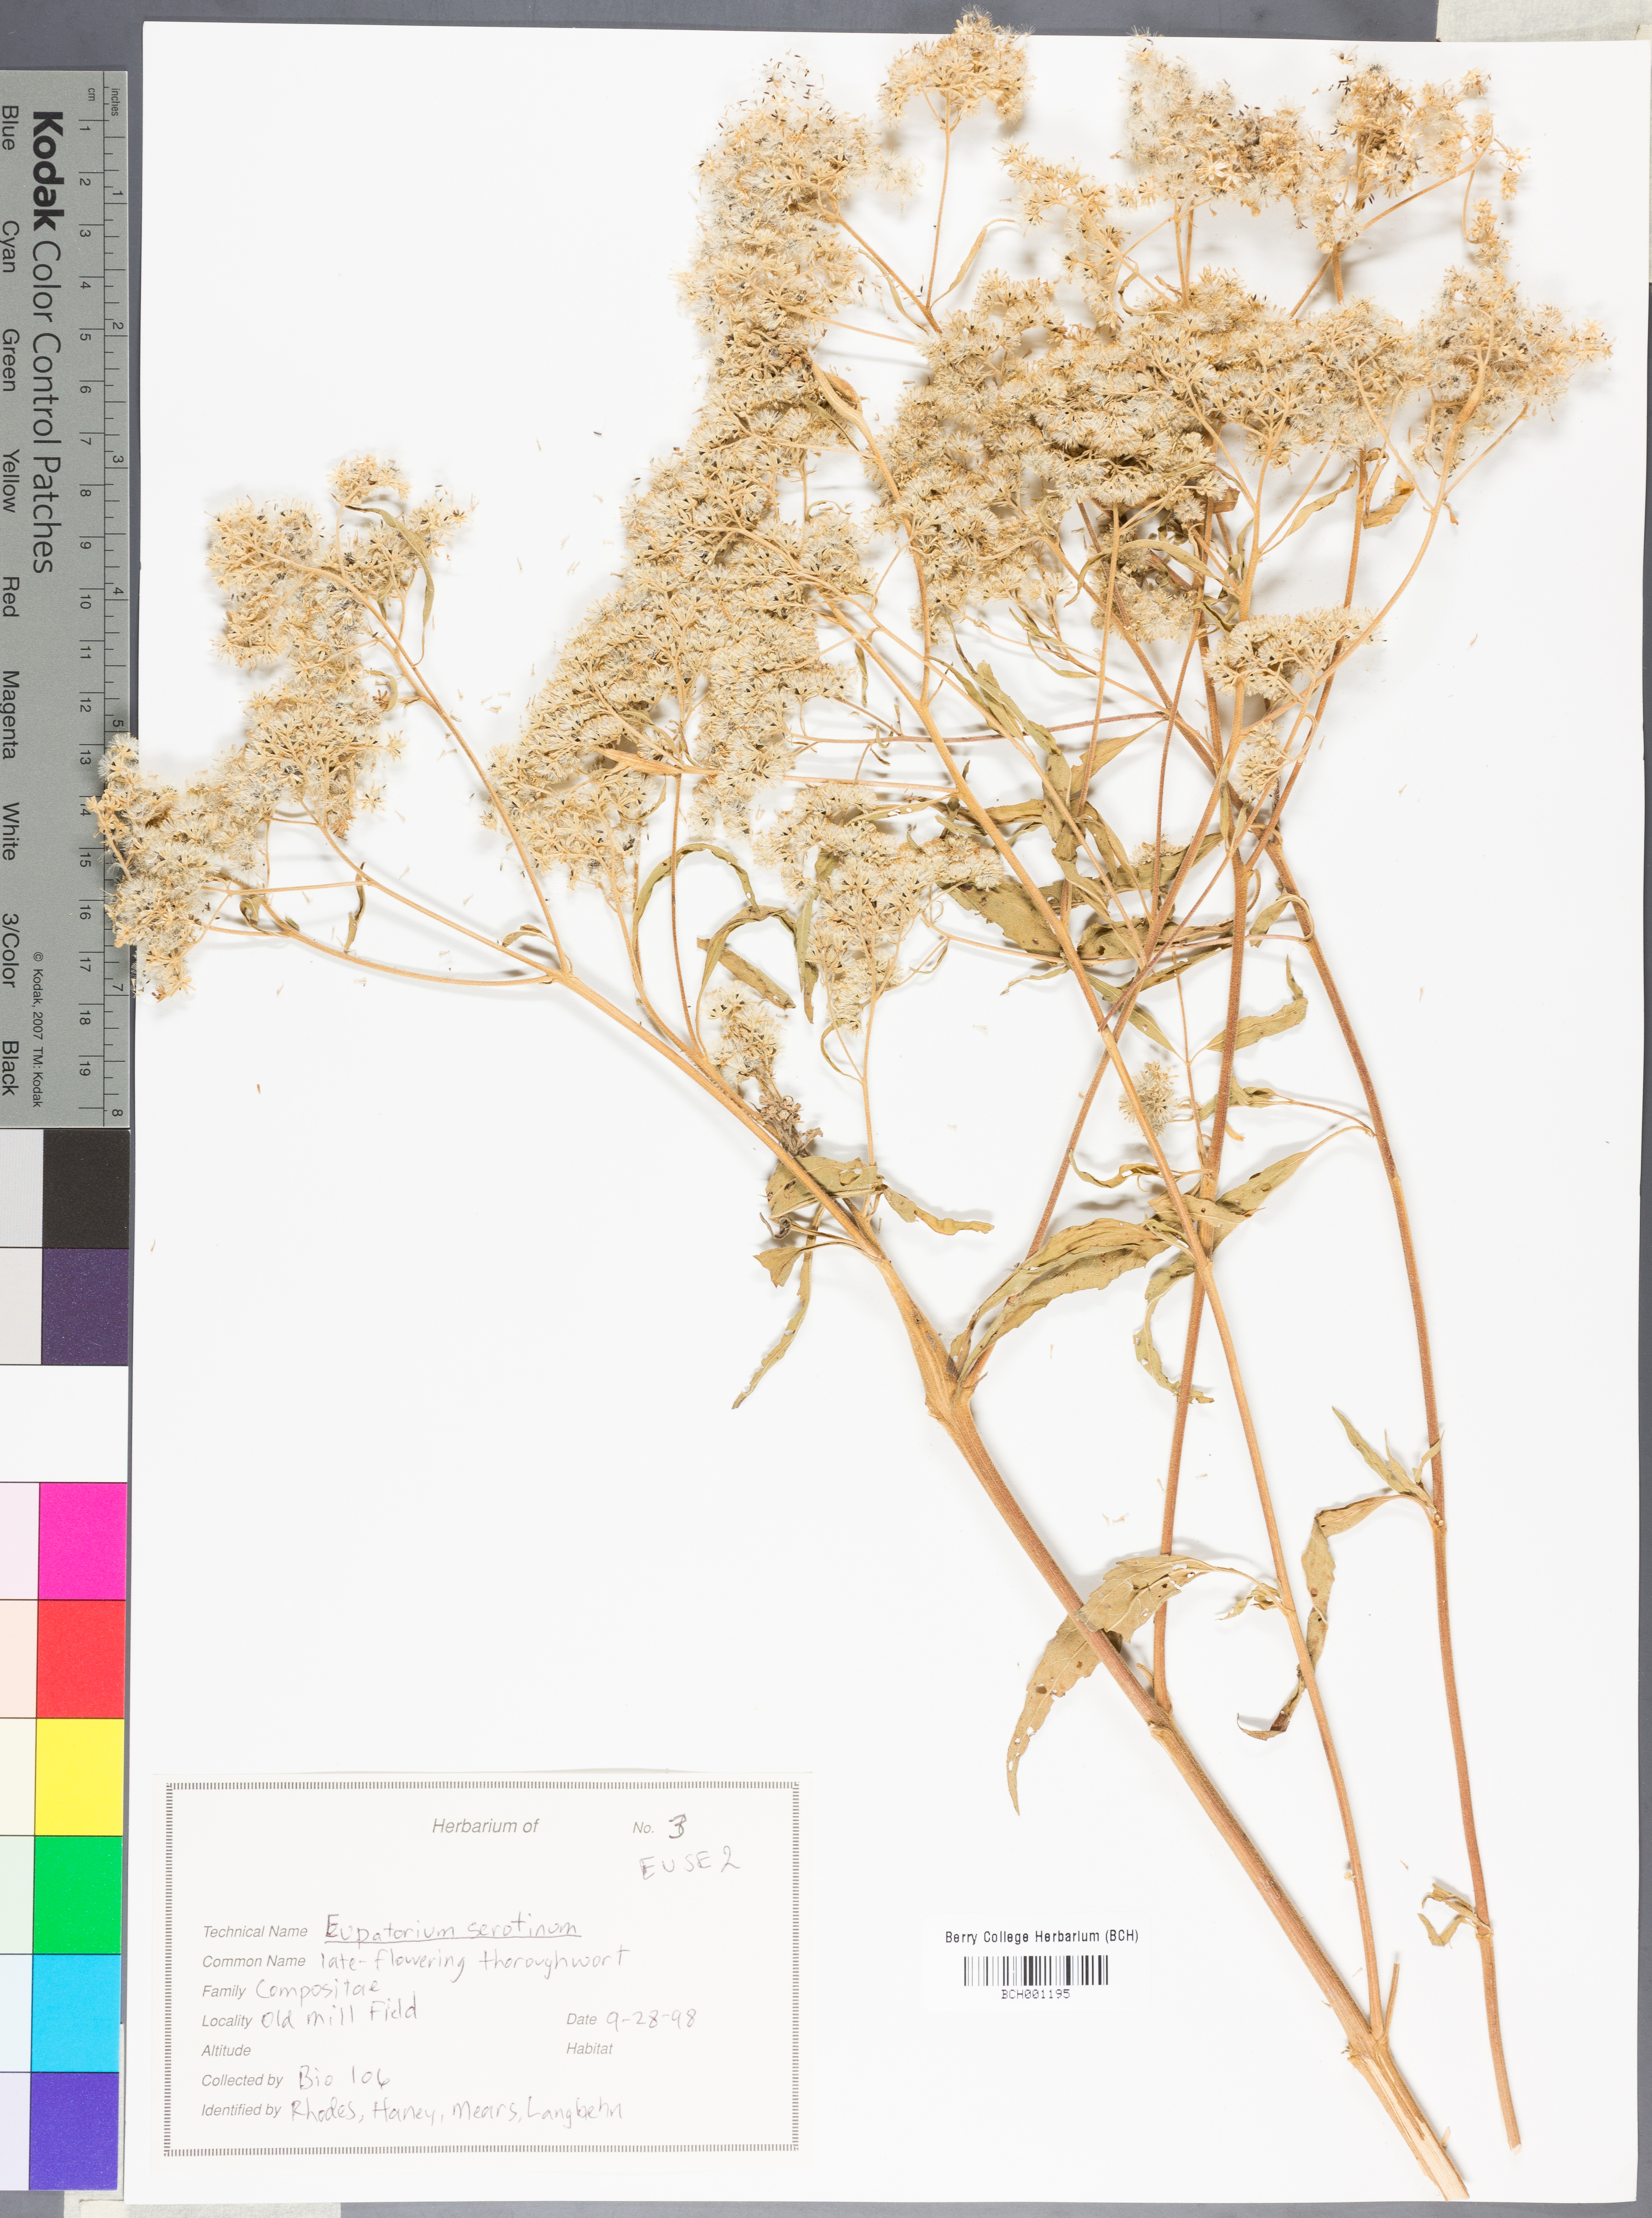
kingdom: Plantae
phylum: Tracheophyta
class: Magnoliopsida
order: Asterales
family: Asteraceae
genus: Eupatorium
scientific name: Eupatorium serotinum
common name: Late boneset
